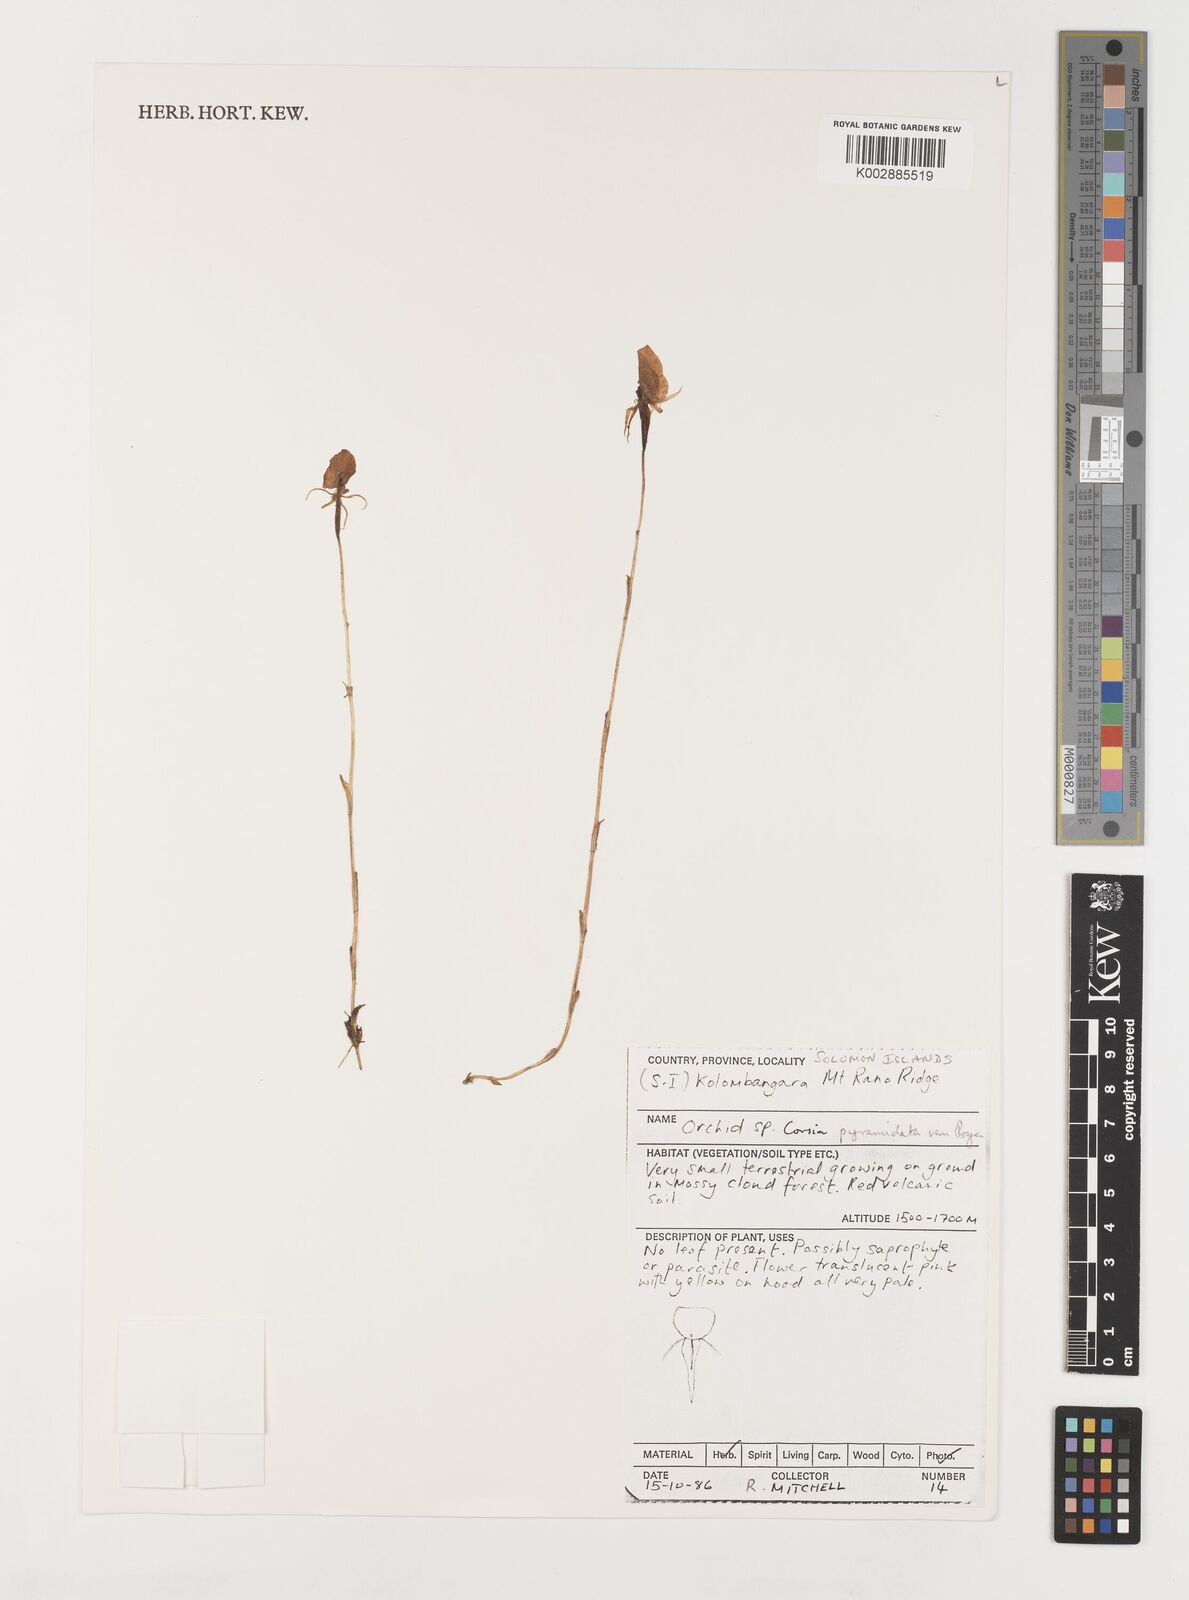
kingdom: Plantae
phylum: Tracheophyta
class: Liliopsida
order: Liliales
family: Corsiaceae
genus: Corsia
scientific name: Corsia pyramidata
